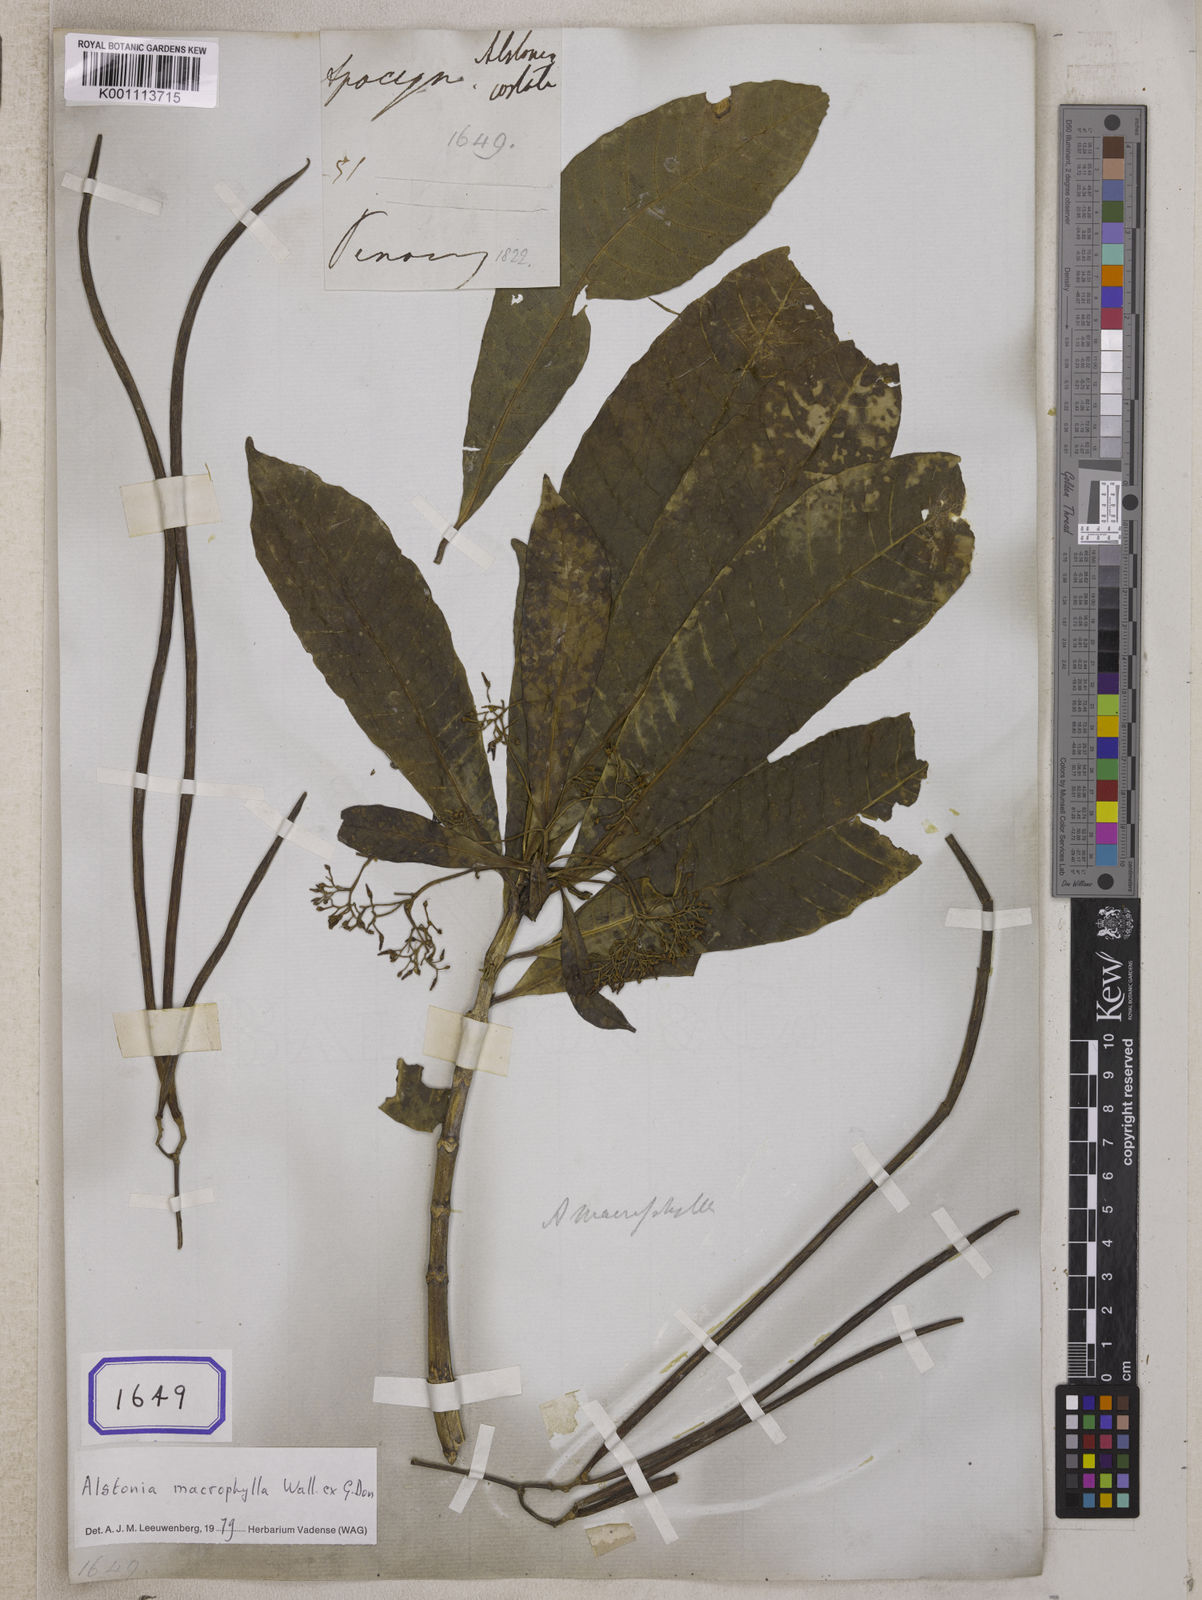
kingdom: Plantae
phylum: Tracheophyta
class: Magnoliopsida
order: Gentianales
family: Apocynaceae
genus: Alstonia
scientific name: Alstonia costata
